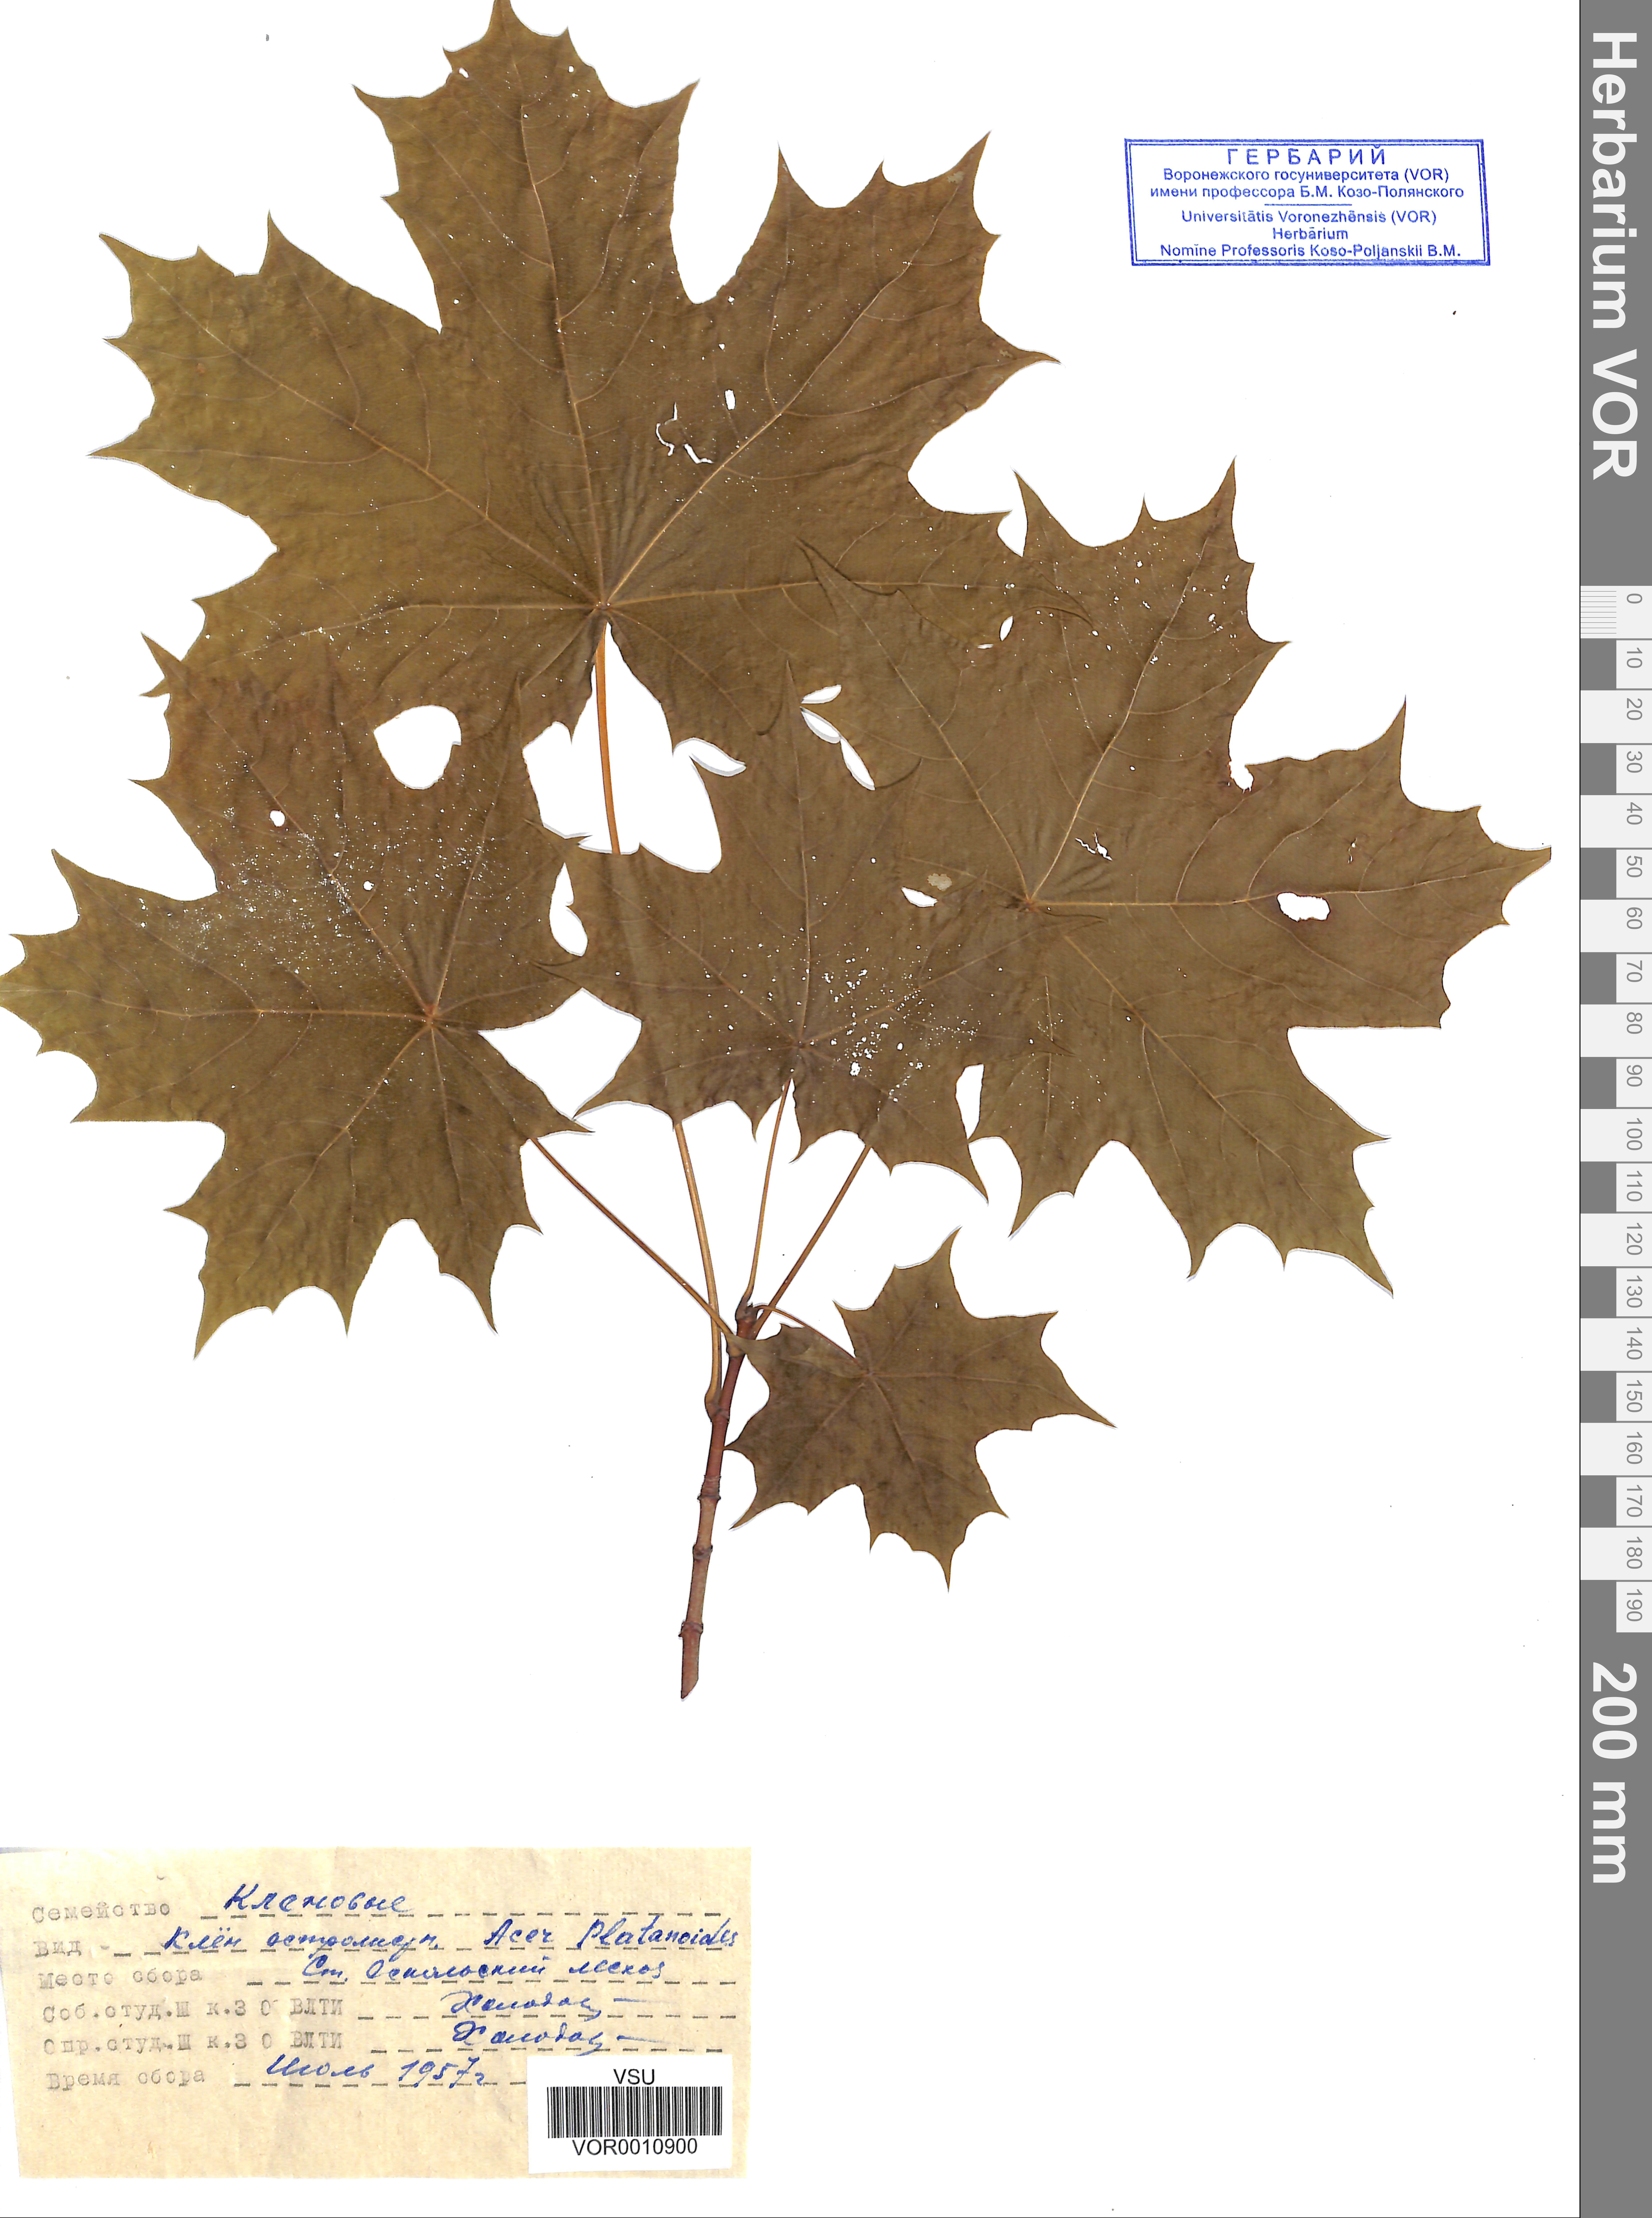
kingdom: Plantae
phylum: Tracheophyta
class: Magnoliopsida
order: Sapindales
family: Sapindaceae
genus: Acer
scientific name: Acer platanoides
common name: Norway maple
